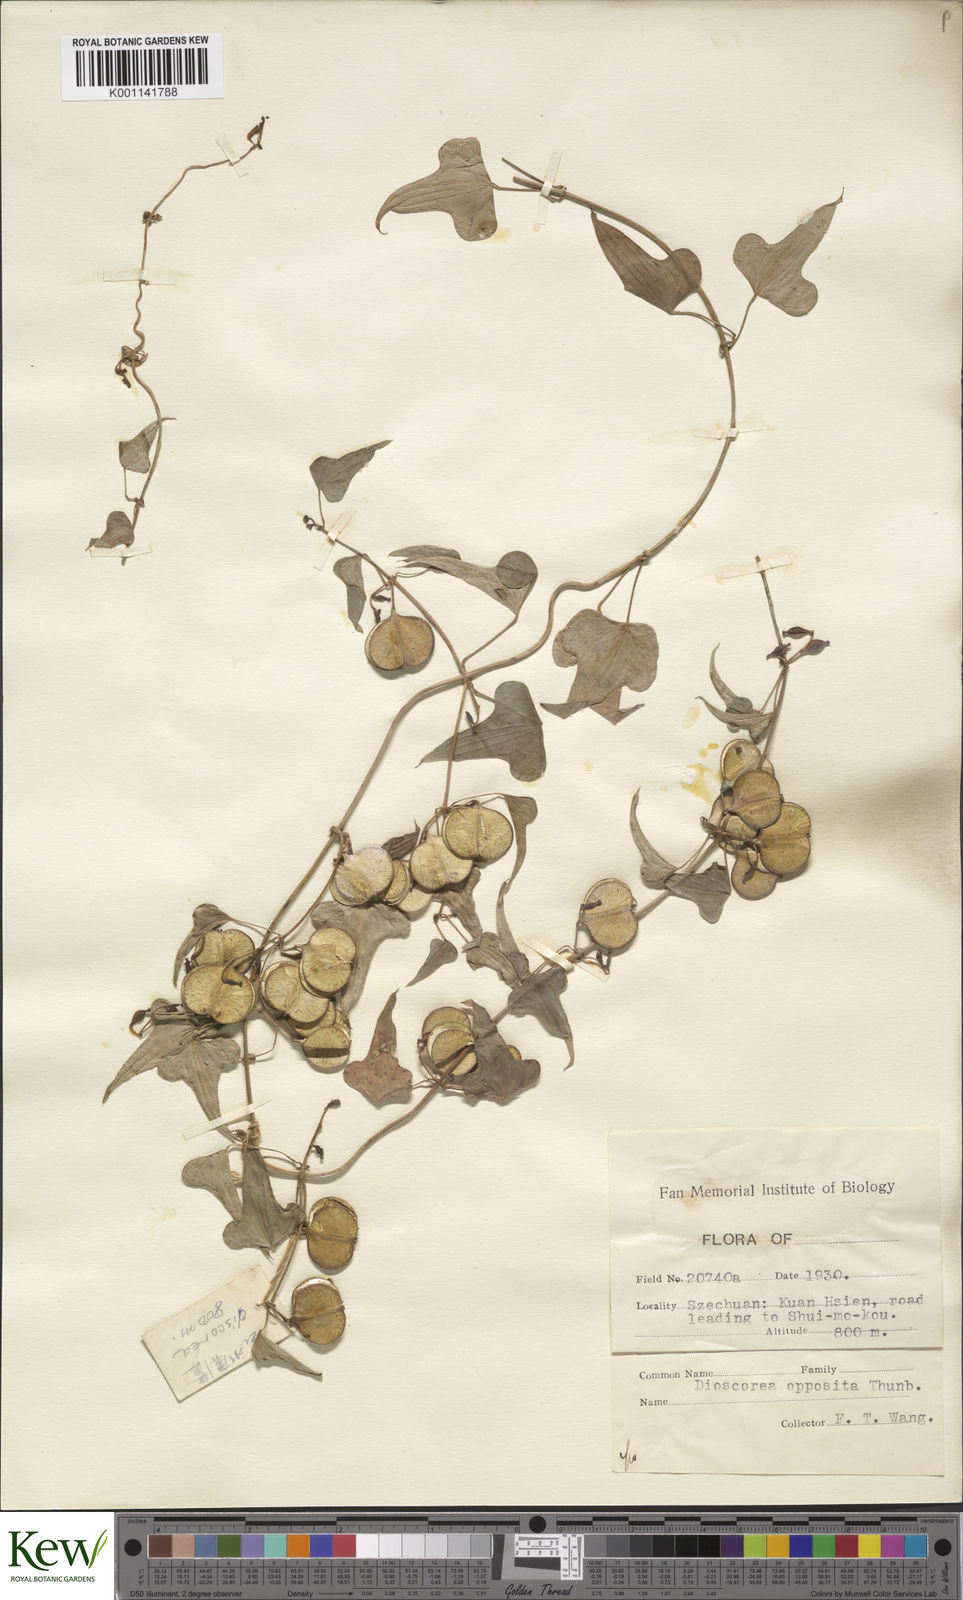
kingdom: Plantae
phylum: Tracheophyta
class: Liliopsida
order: Dioscoreales
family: Dioscoreaceae
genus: Dioscorea
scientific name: Dioscorea oppositifolia
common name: Chinese yam
